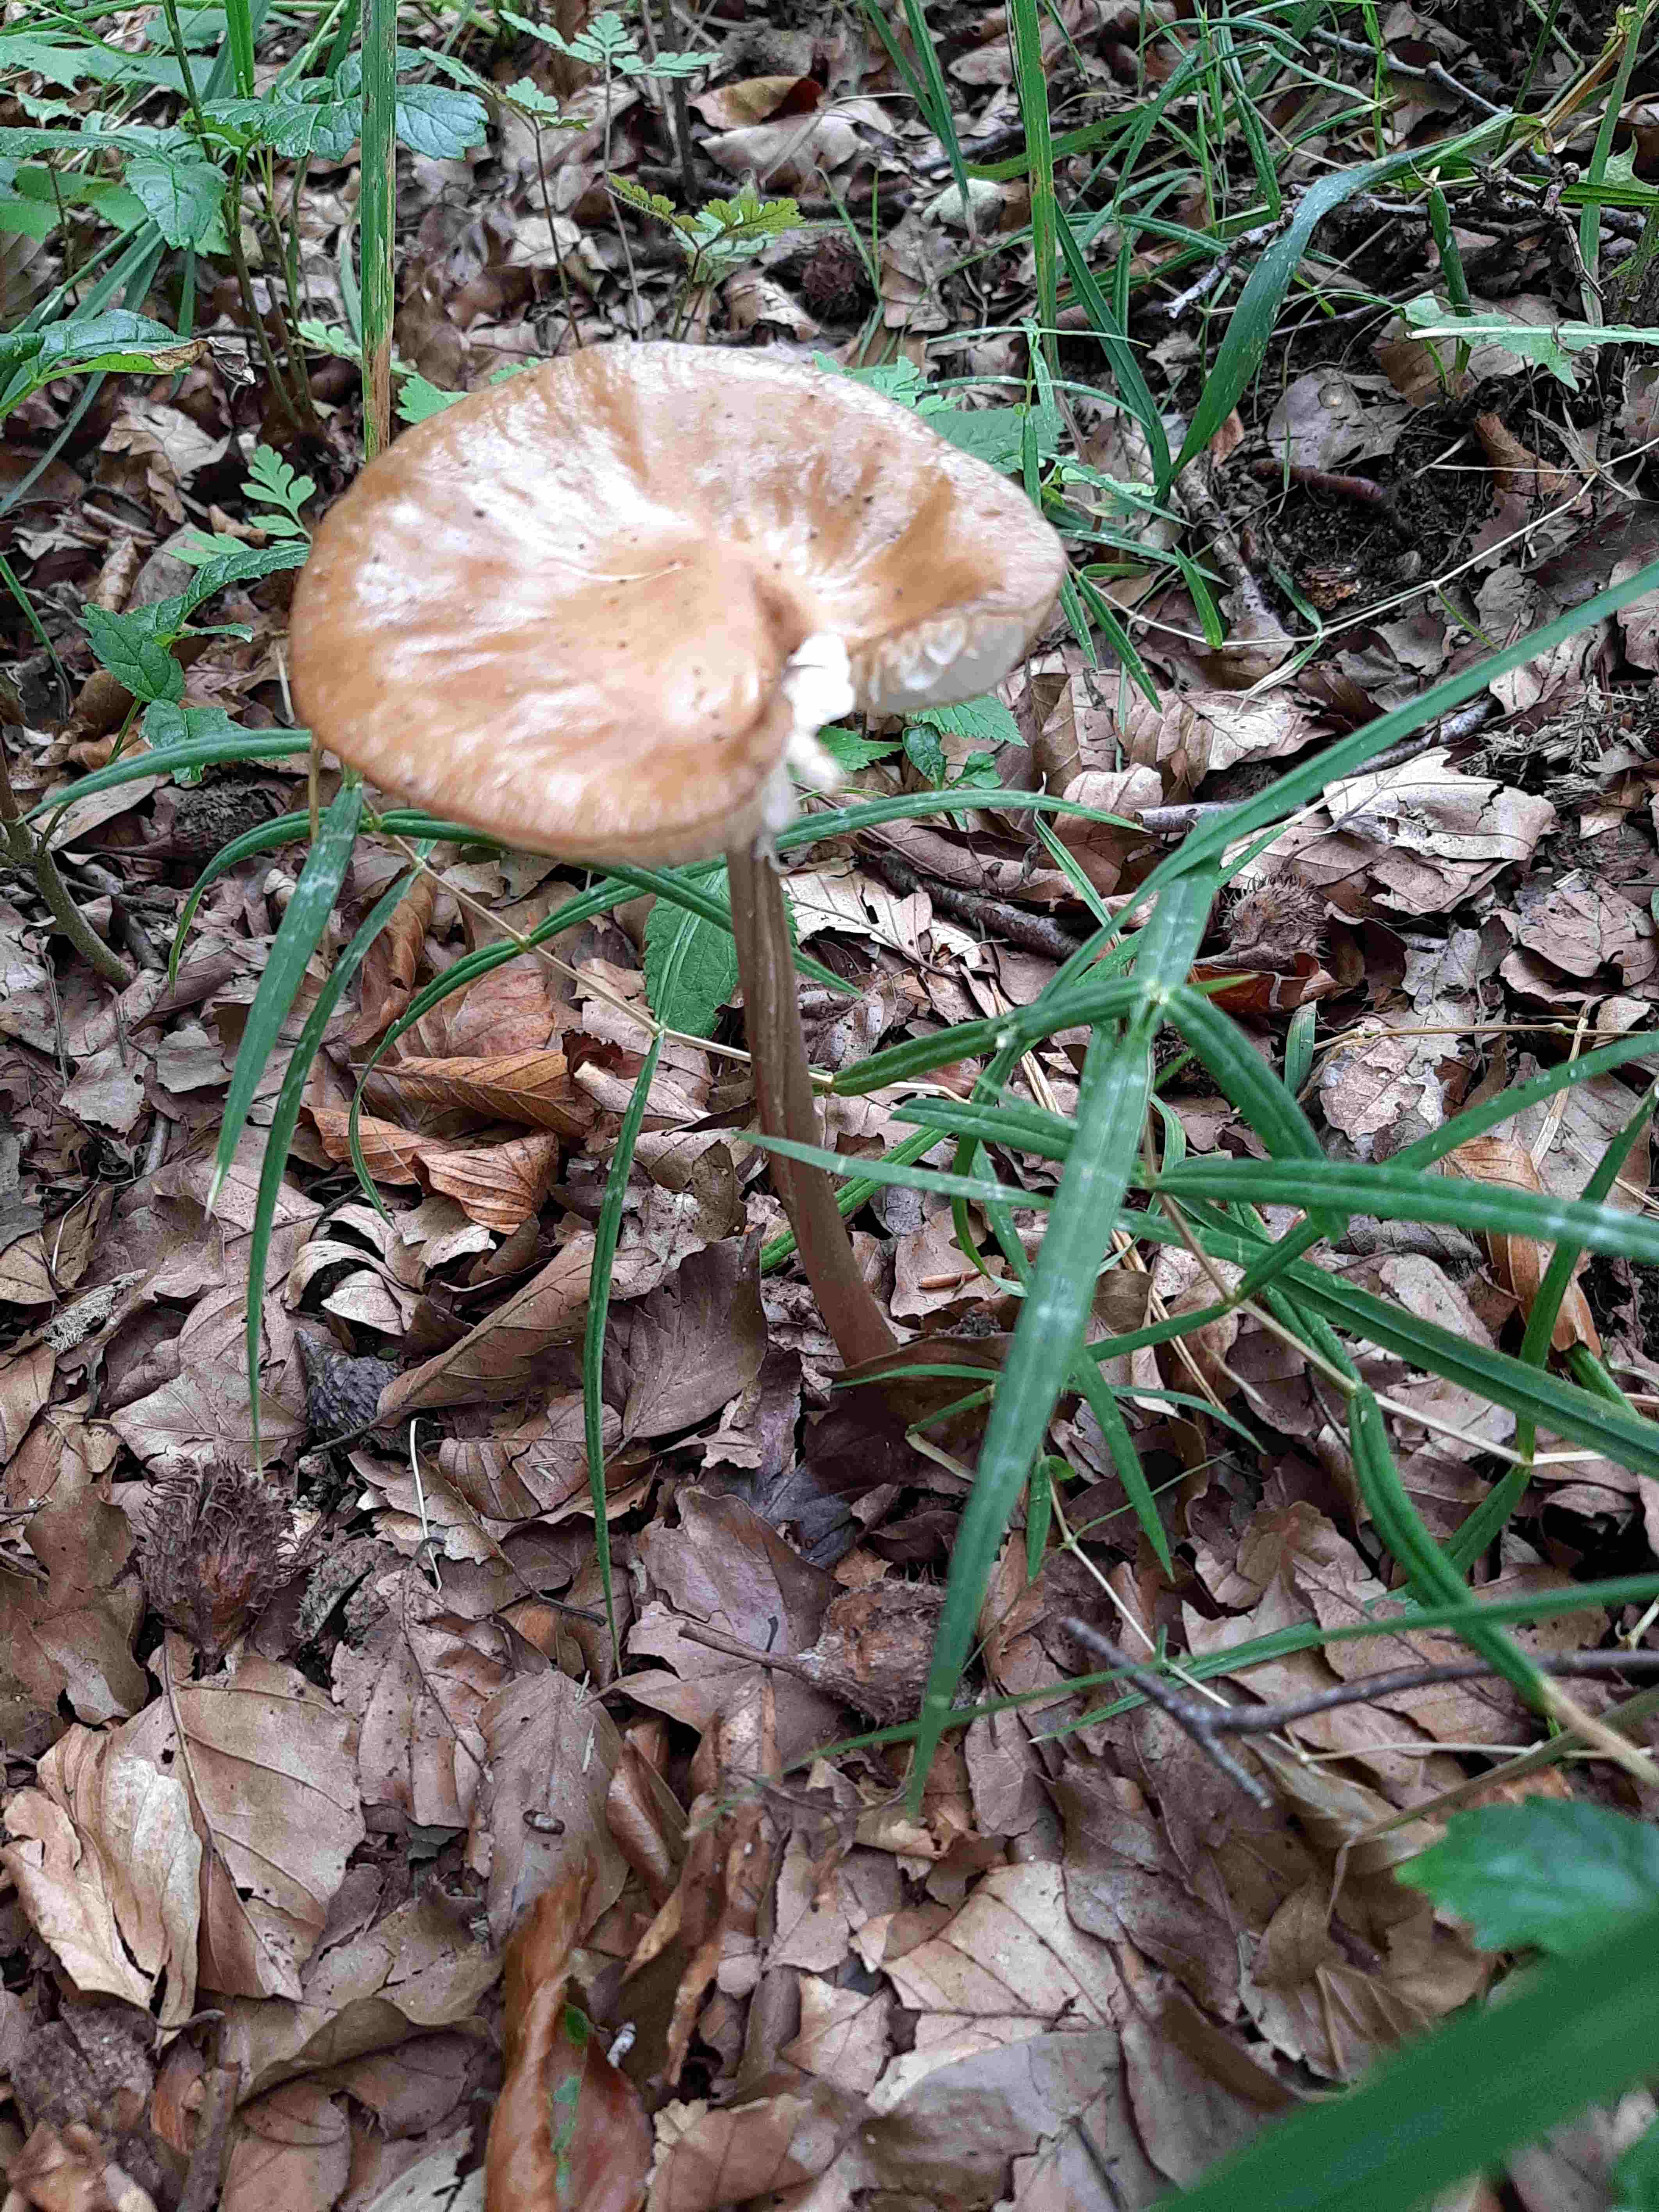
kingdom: Fungi
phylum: Basidiomycota
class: Agaricomycetes
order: Agaricales
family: Physalacriaceae
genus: Hymenopellis
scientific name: Hymenopellis radicata
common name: almindelig pælerodshat
